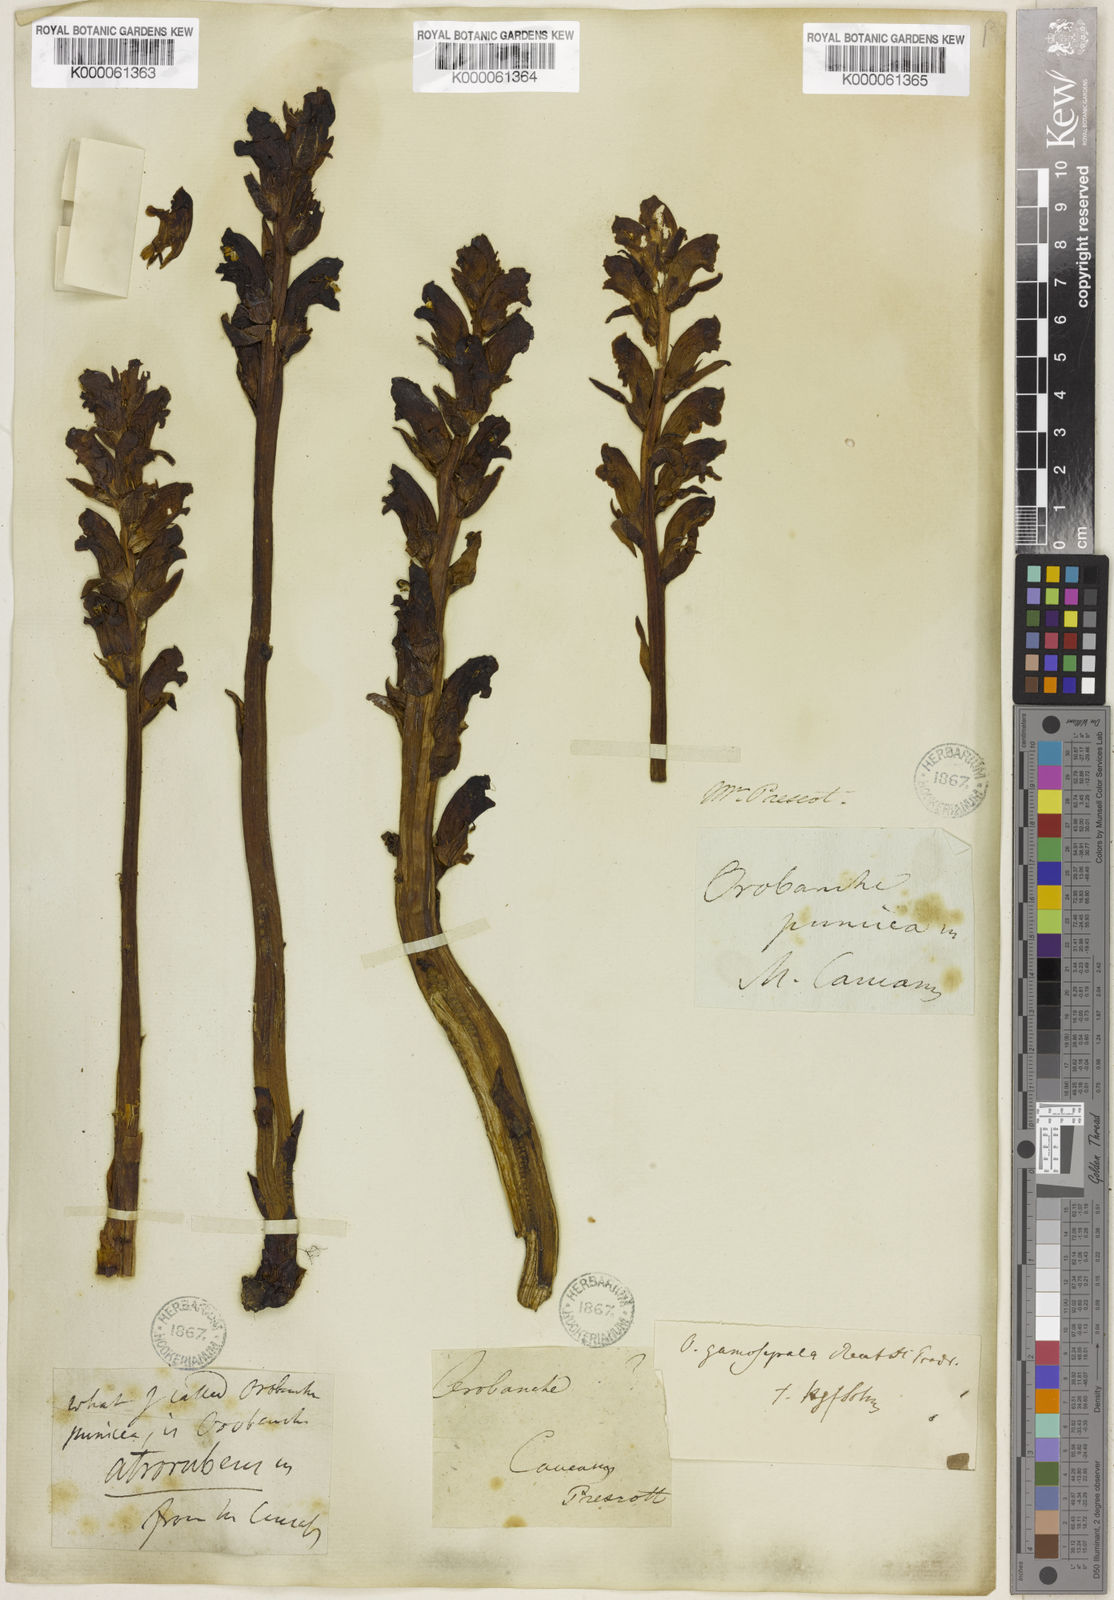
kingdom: Plantae
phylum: Tracheophyta
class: Magnoliopsida
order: Lamiales
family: Orobanchaceae
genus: Orobanche
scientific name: Orobanche gamosepala
